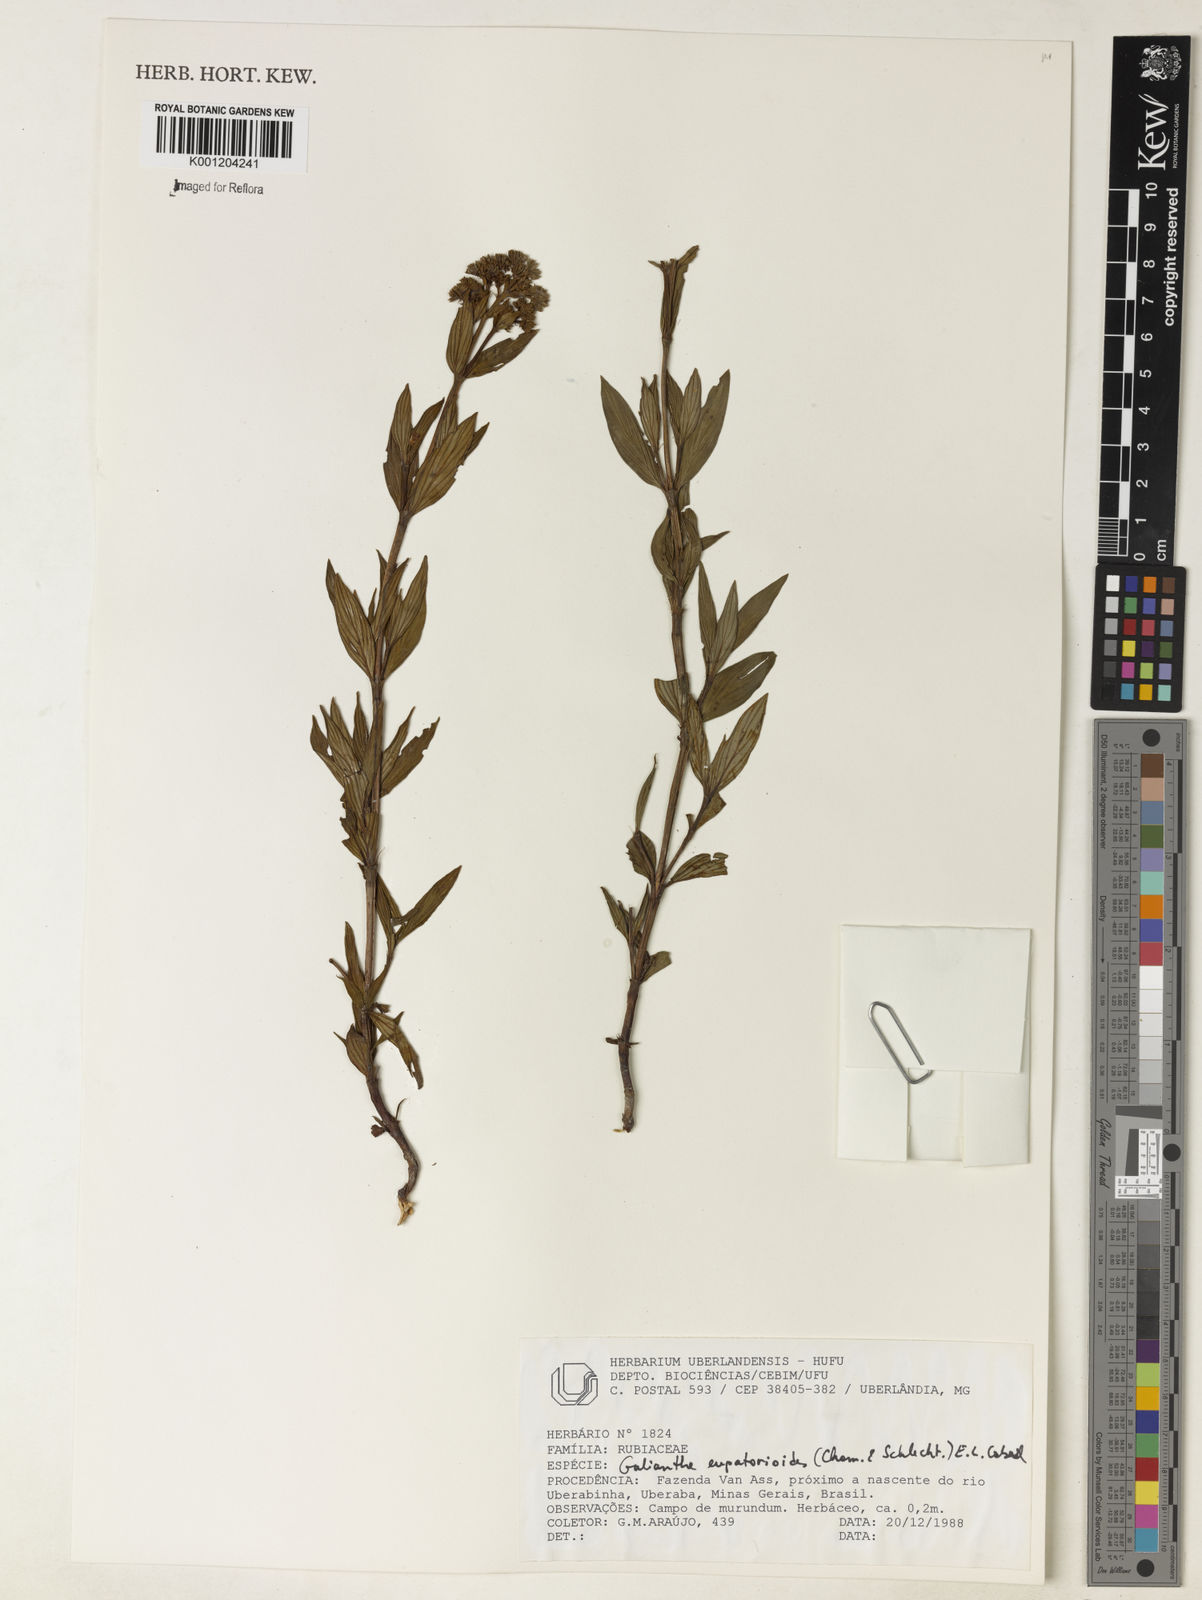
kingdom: Plantae
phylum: Tracheophyta
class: Magnoliopsida
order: Gentianales
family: Rubiaceae
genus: Galianthe
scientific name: Galianthe eupatorioides
